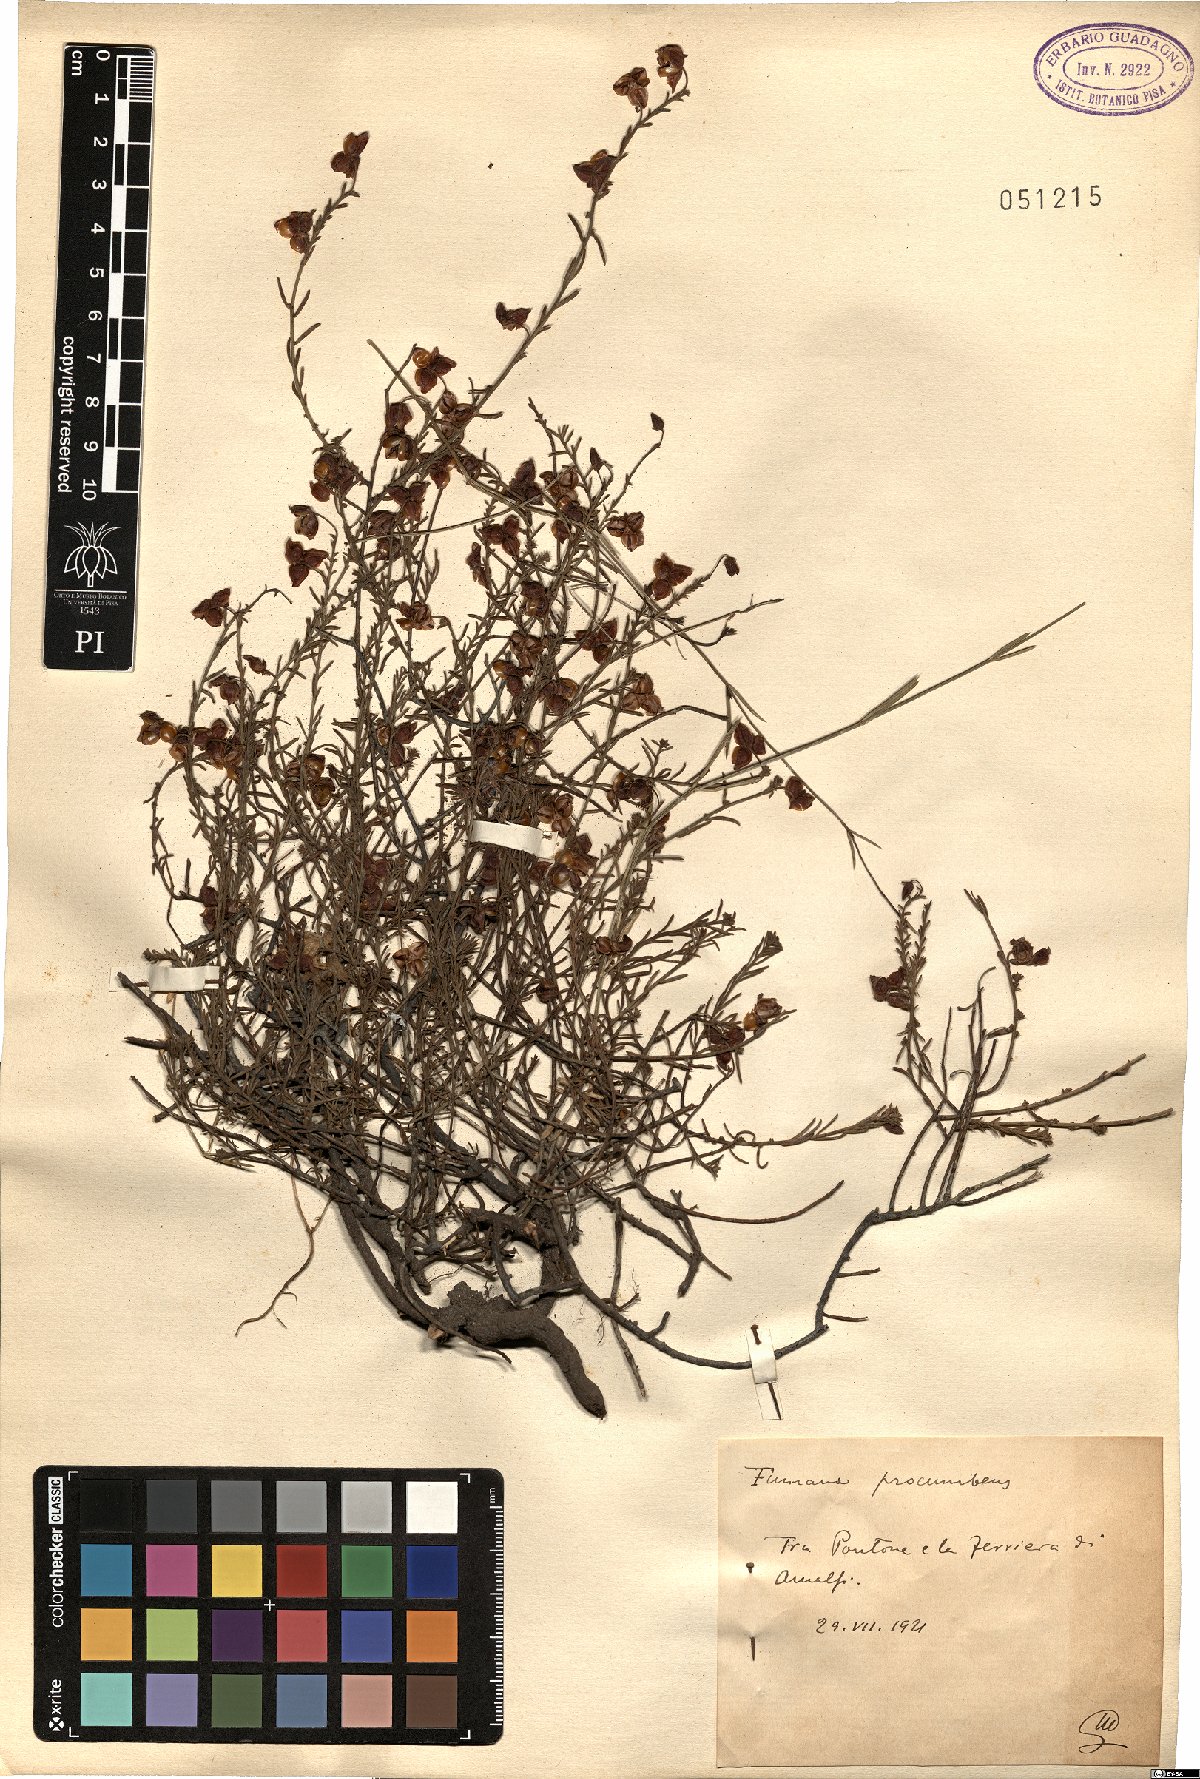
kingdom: Plantae
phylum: Tracheophyta
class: Magnoliopsida
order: Malvales
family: Cistaceae
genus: Fumana
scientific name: Fumana procumbens
